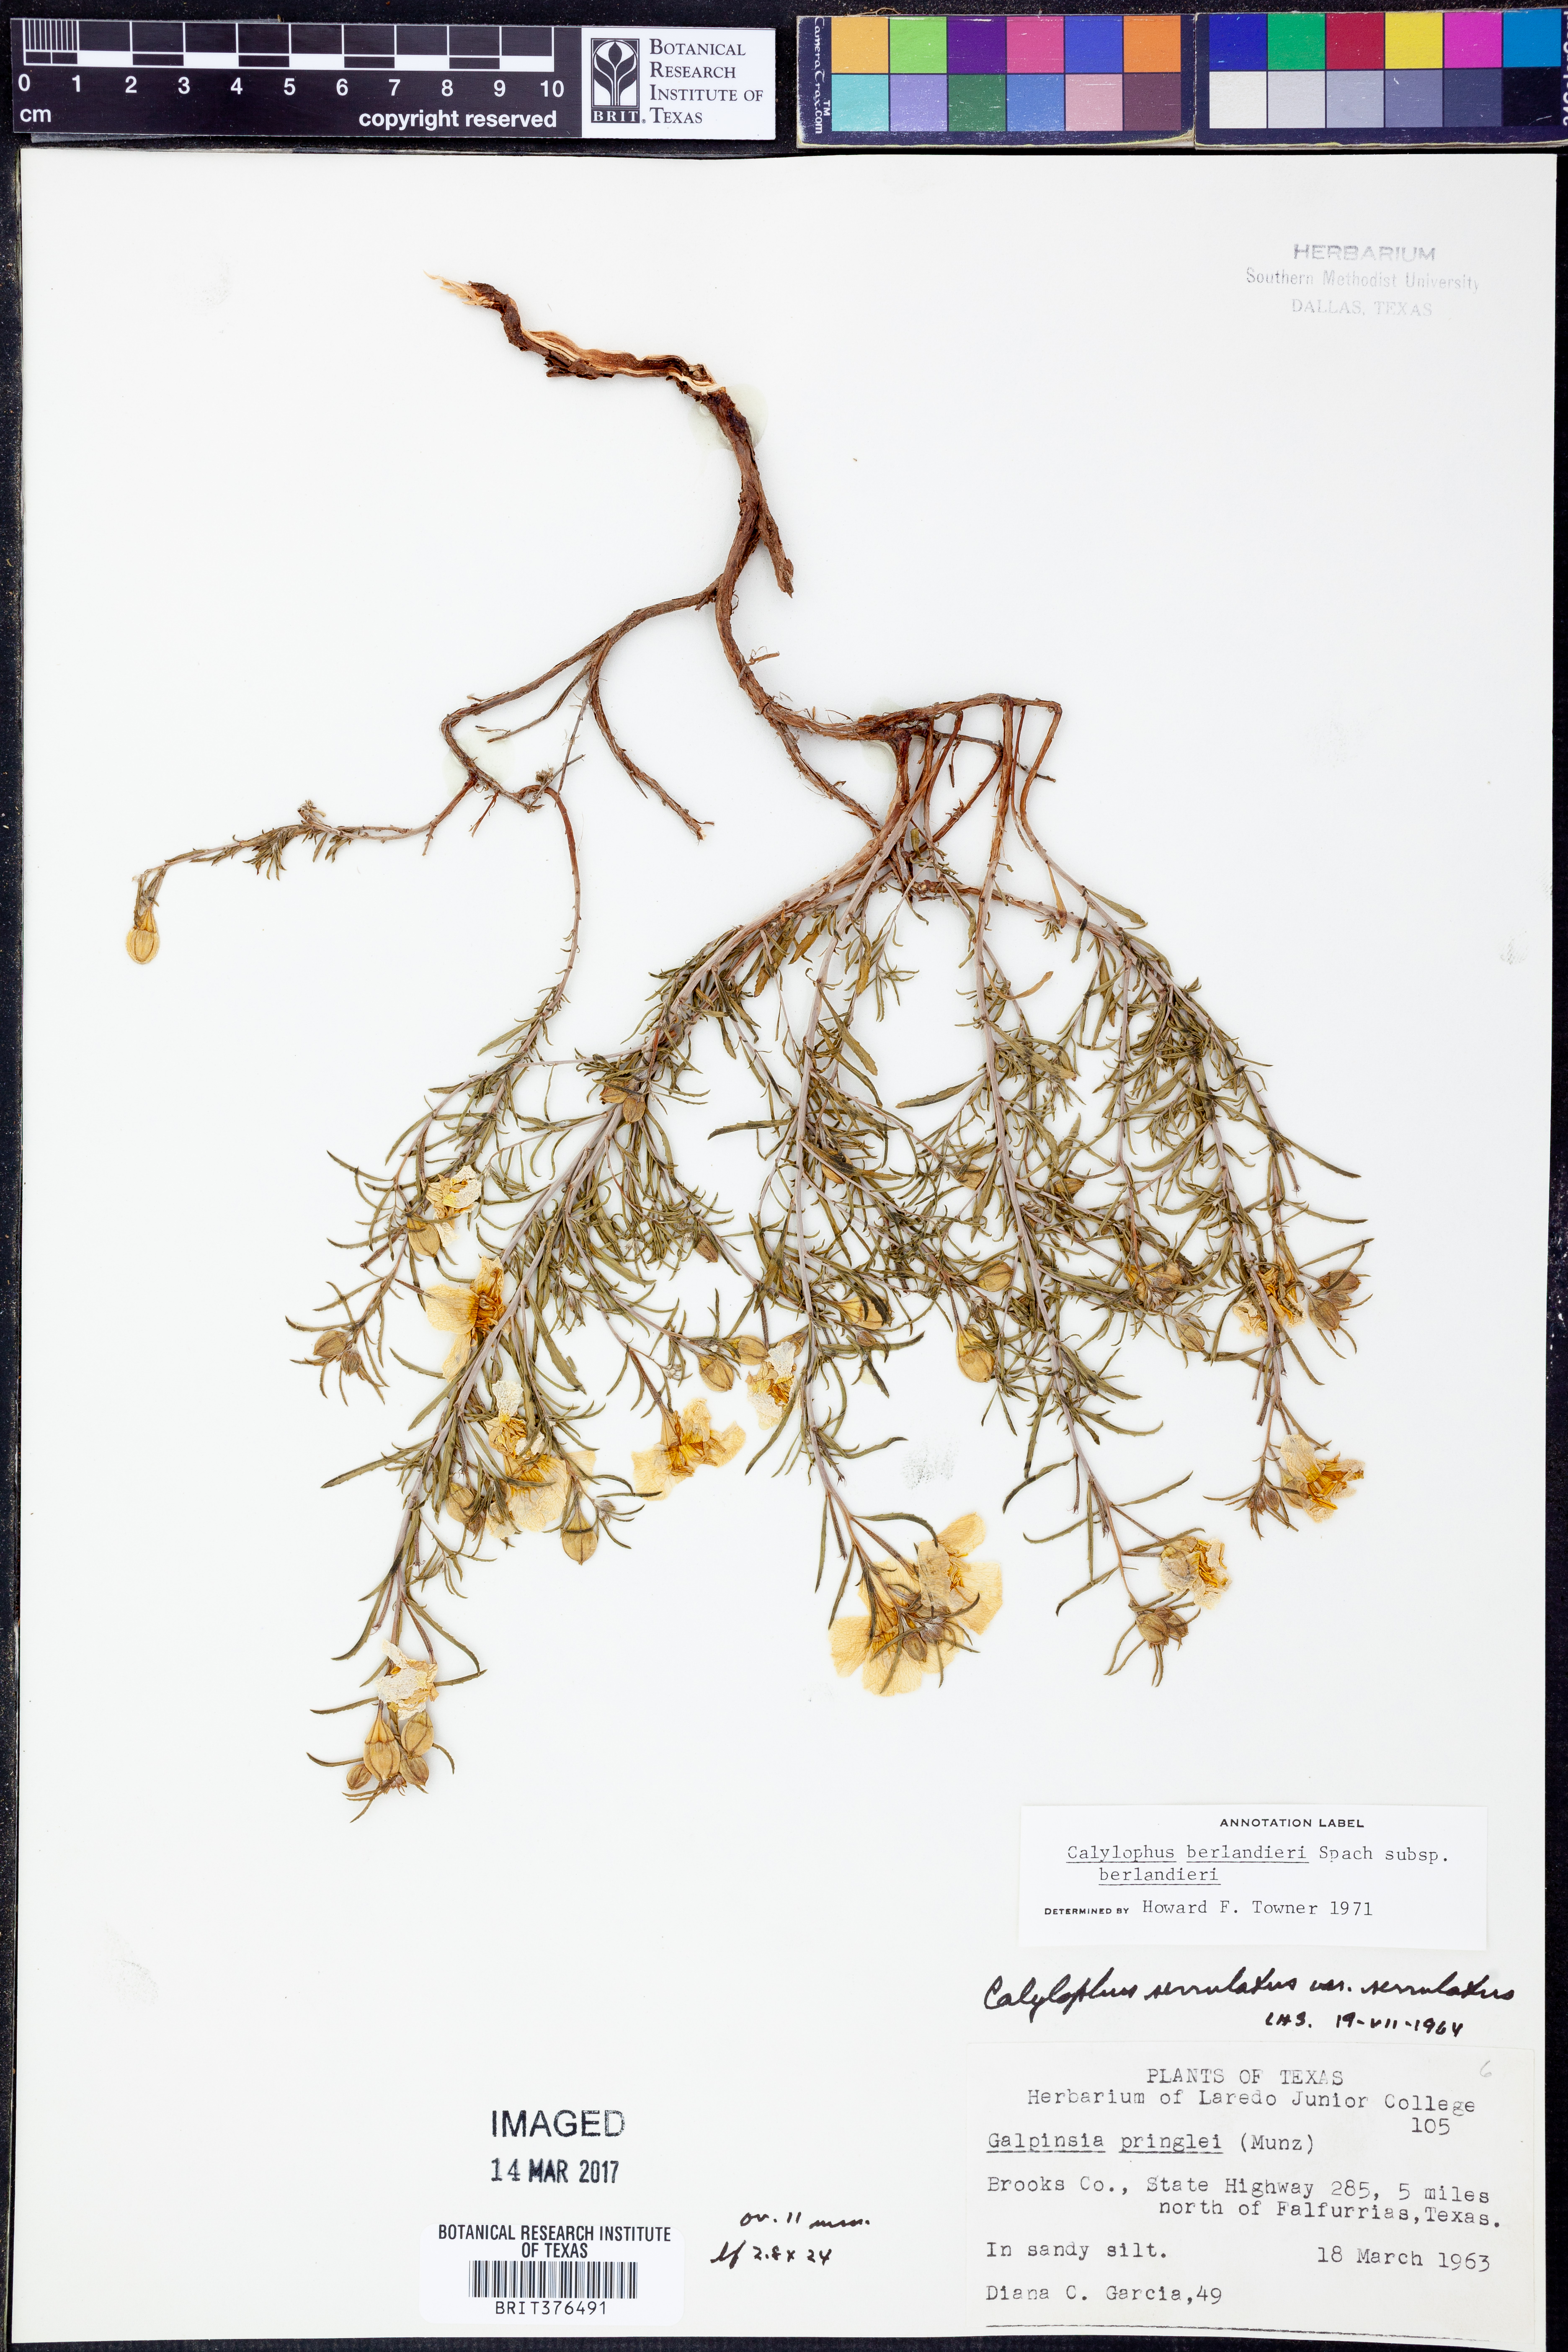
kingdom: Plantae
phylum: Tracheophyta
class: Magnoliopsida
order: Myrtales
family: Onagraceae
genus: Oenothera
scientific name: Oenothera capillifolia
